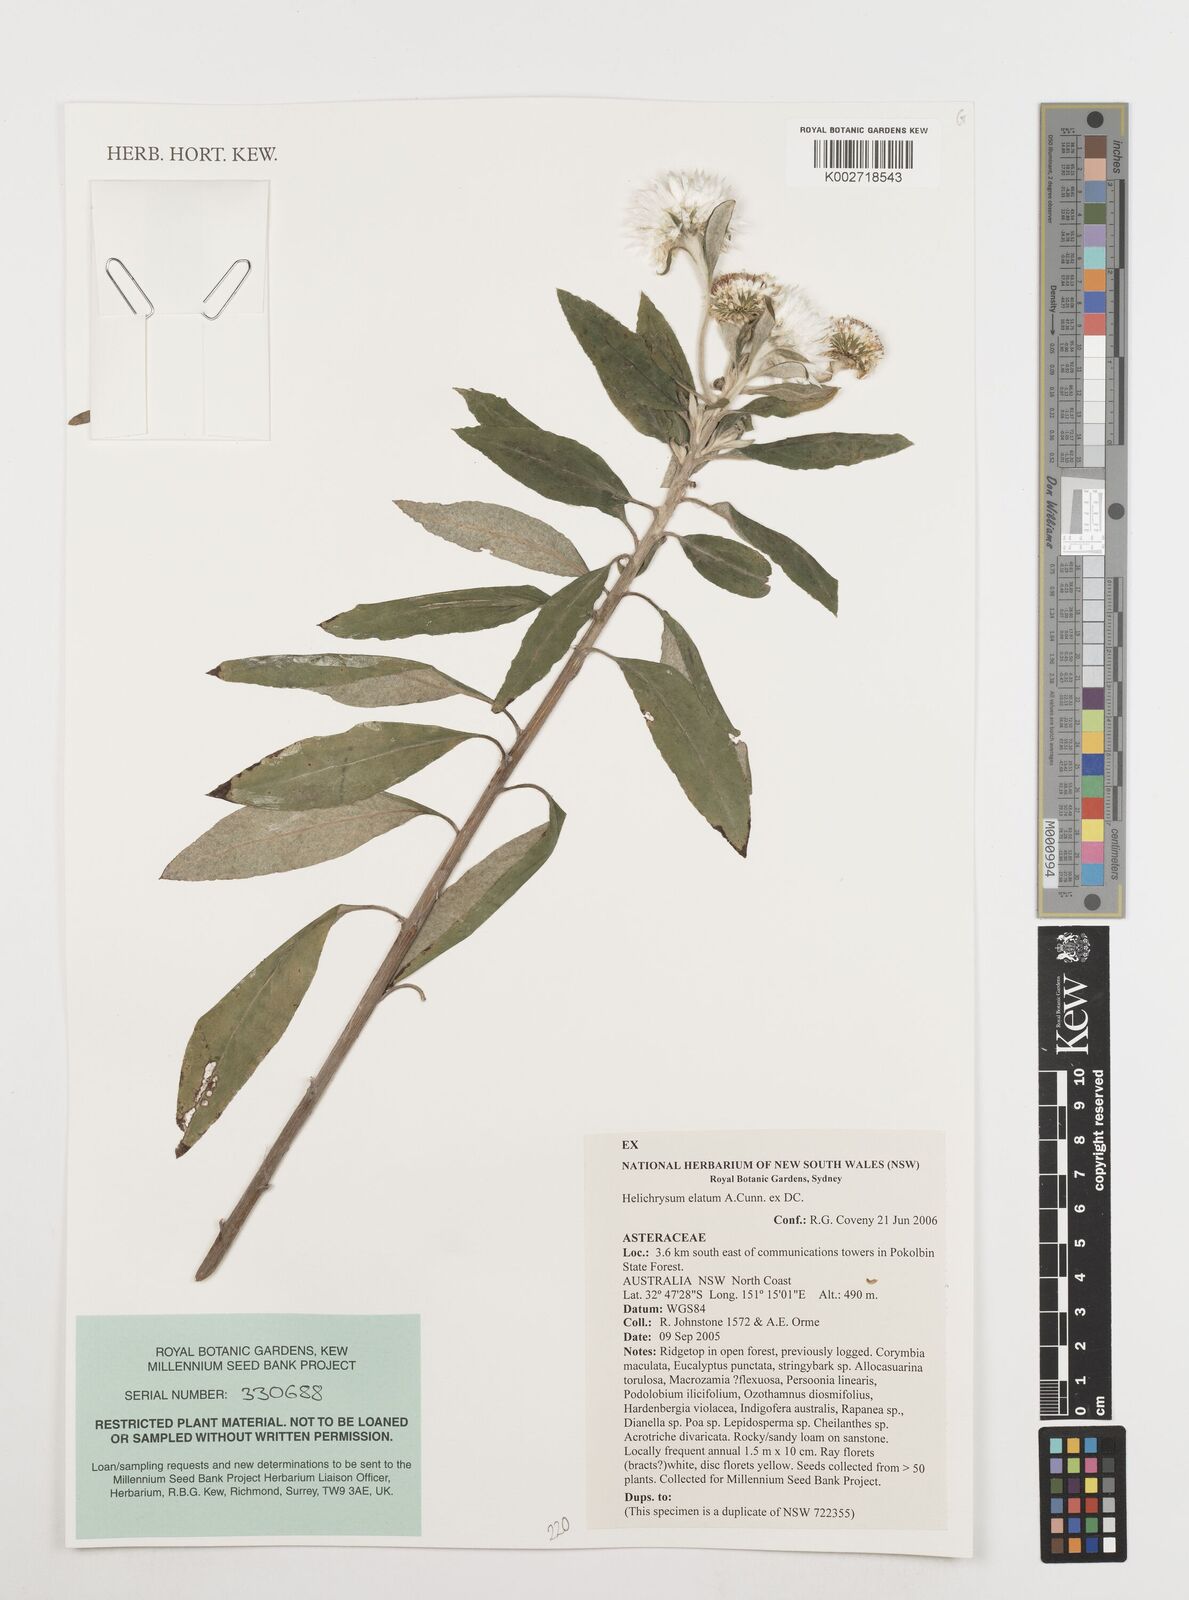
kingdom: Plantae
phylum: Tracheophyta
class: Magnoliopsida
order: Asterales
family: Asteraceae
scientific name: Asteraceae
